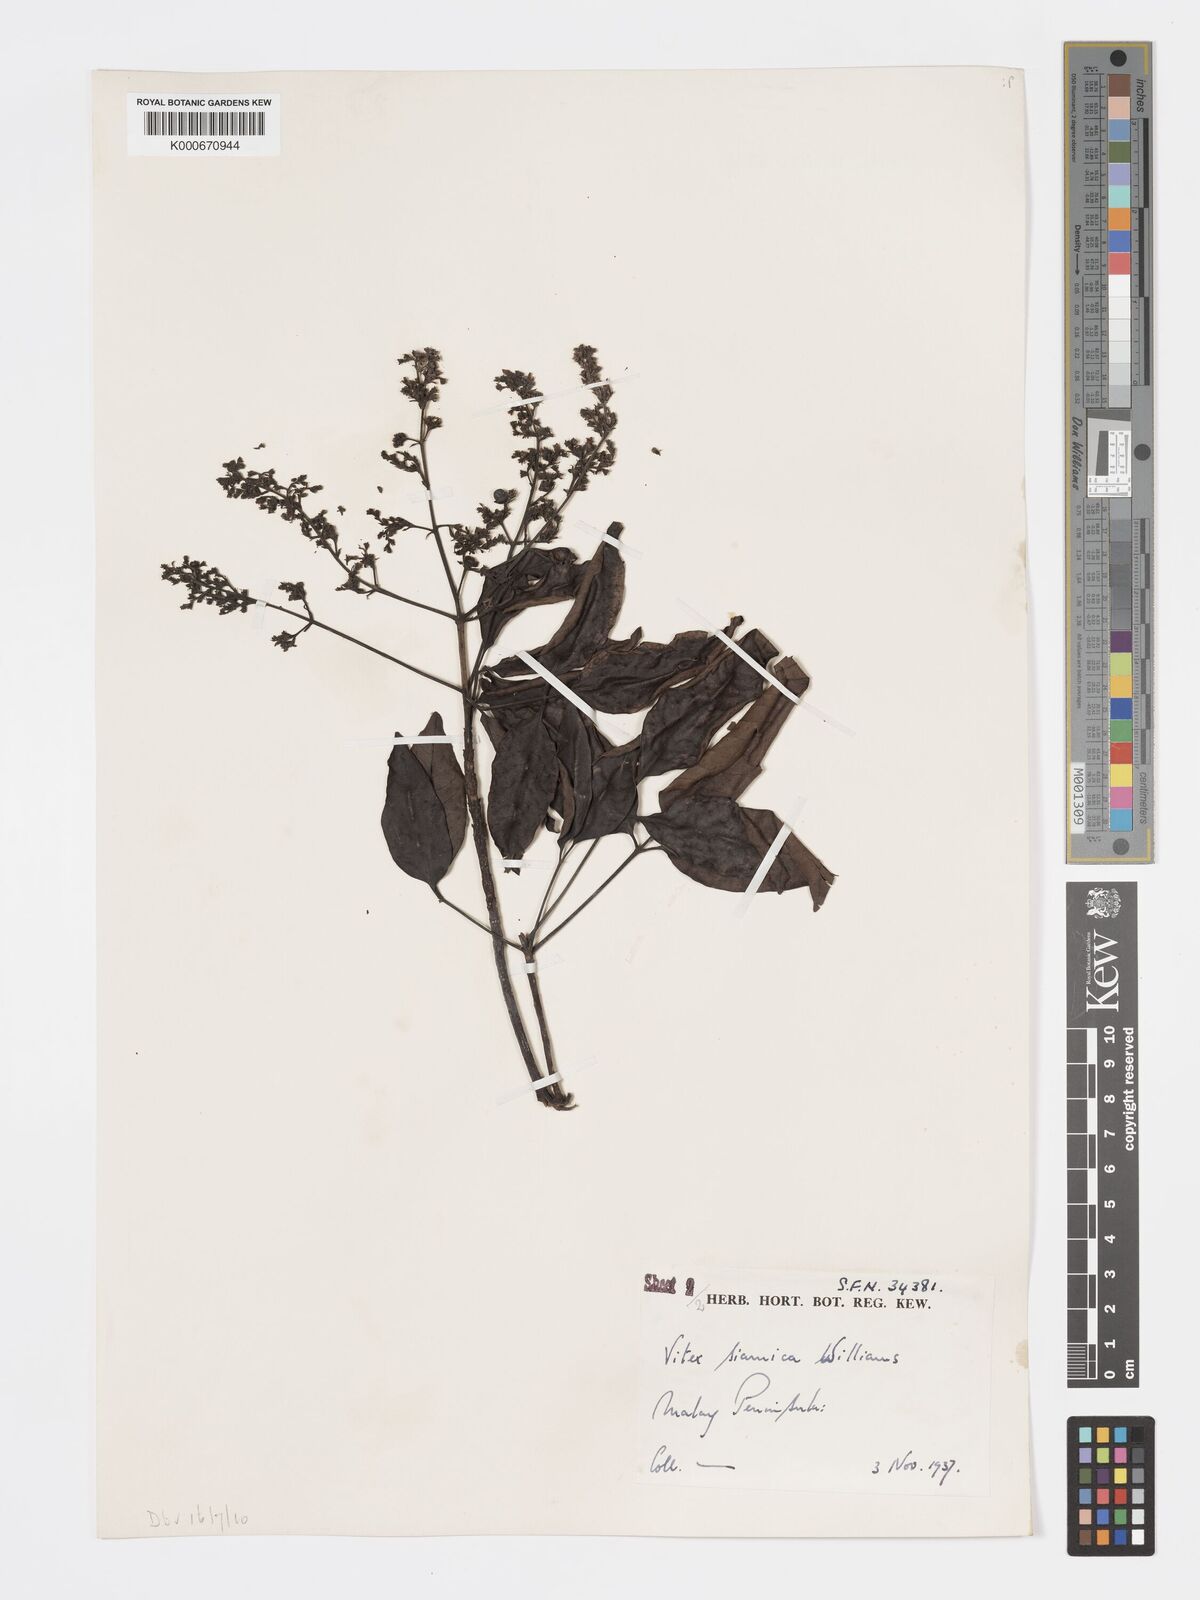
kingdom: Plantae
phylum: Tracheophyta
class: Magnoliopsida
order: Lamiales
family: Lamiaceae
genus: Vitex
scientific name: Vitex siamica
